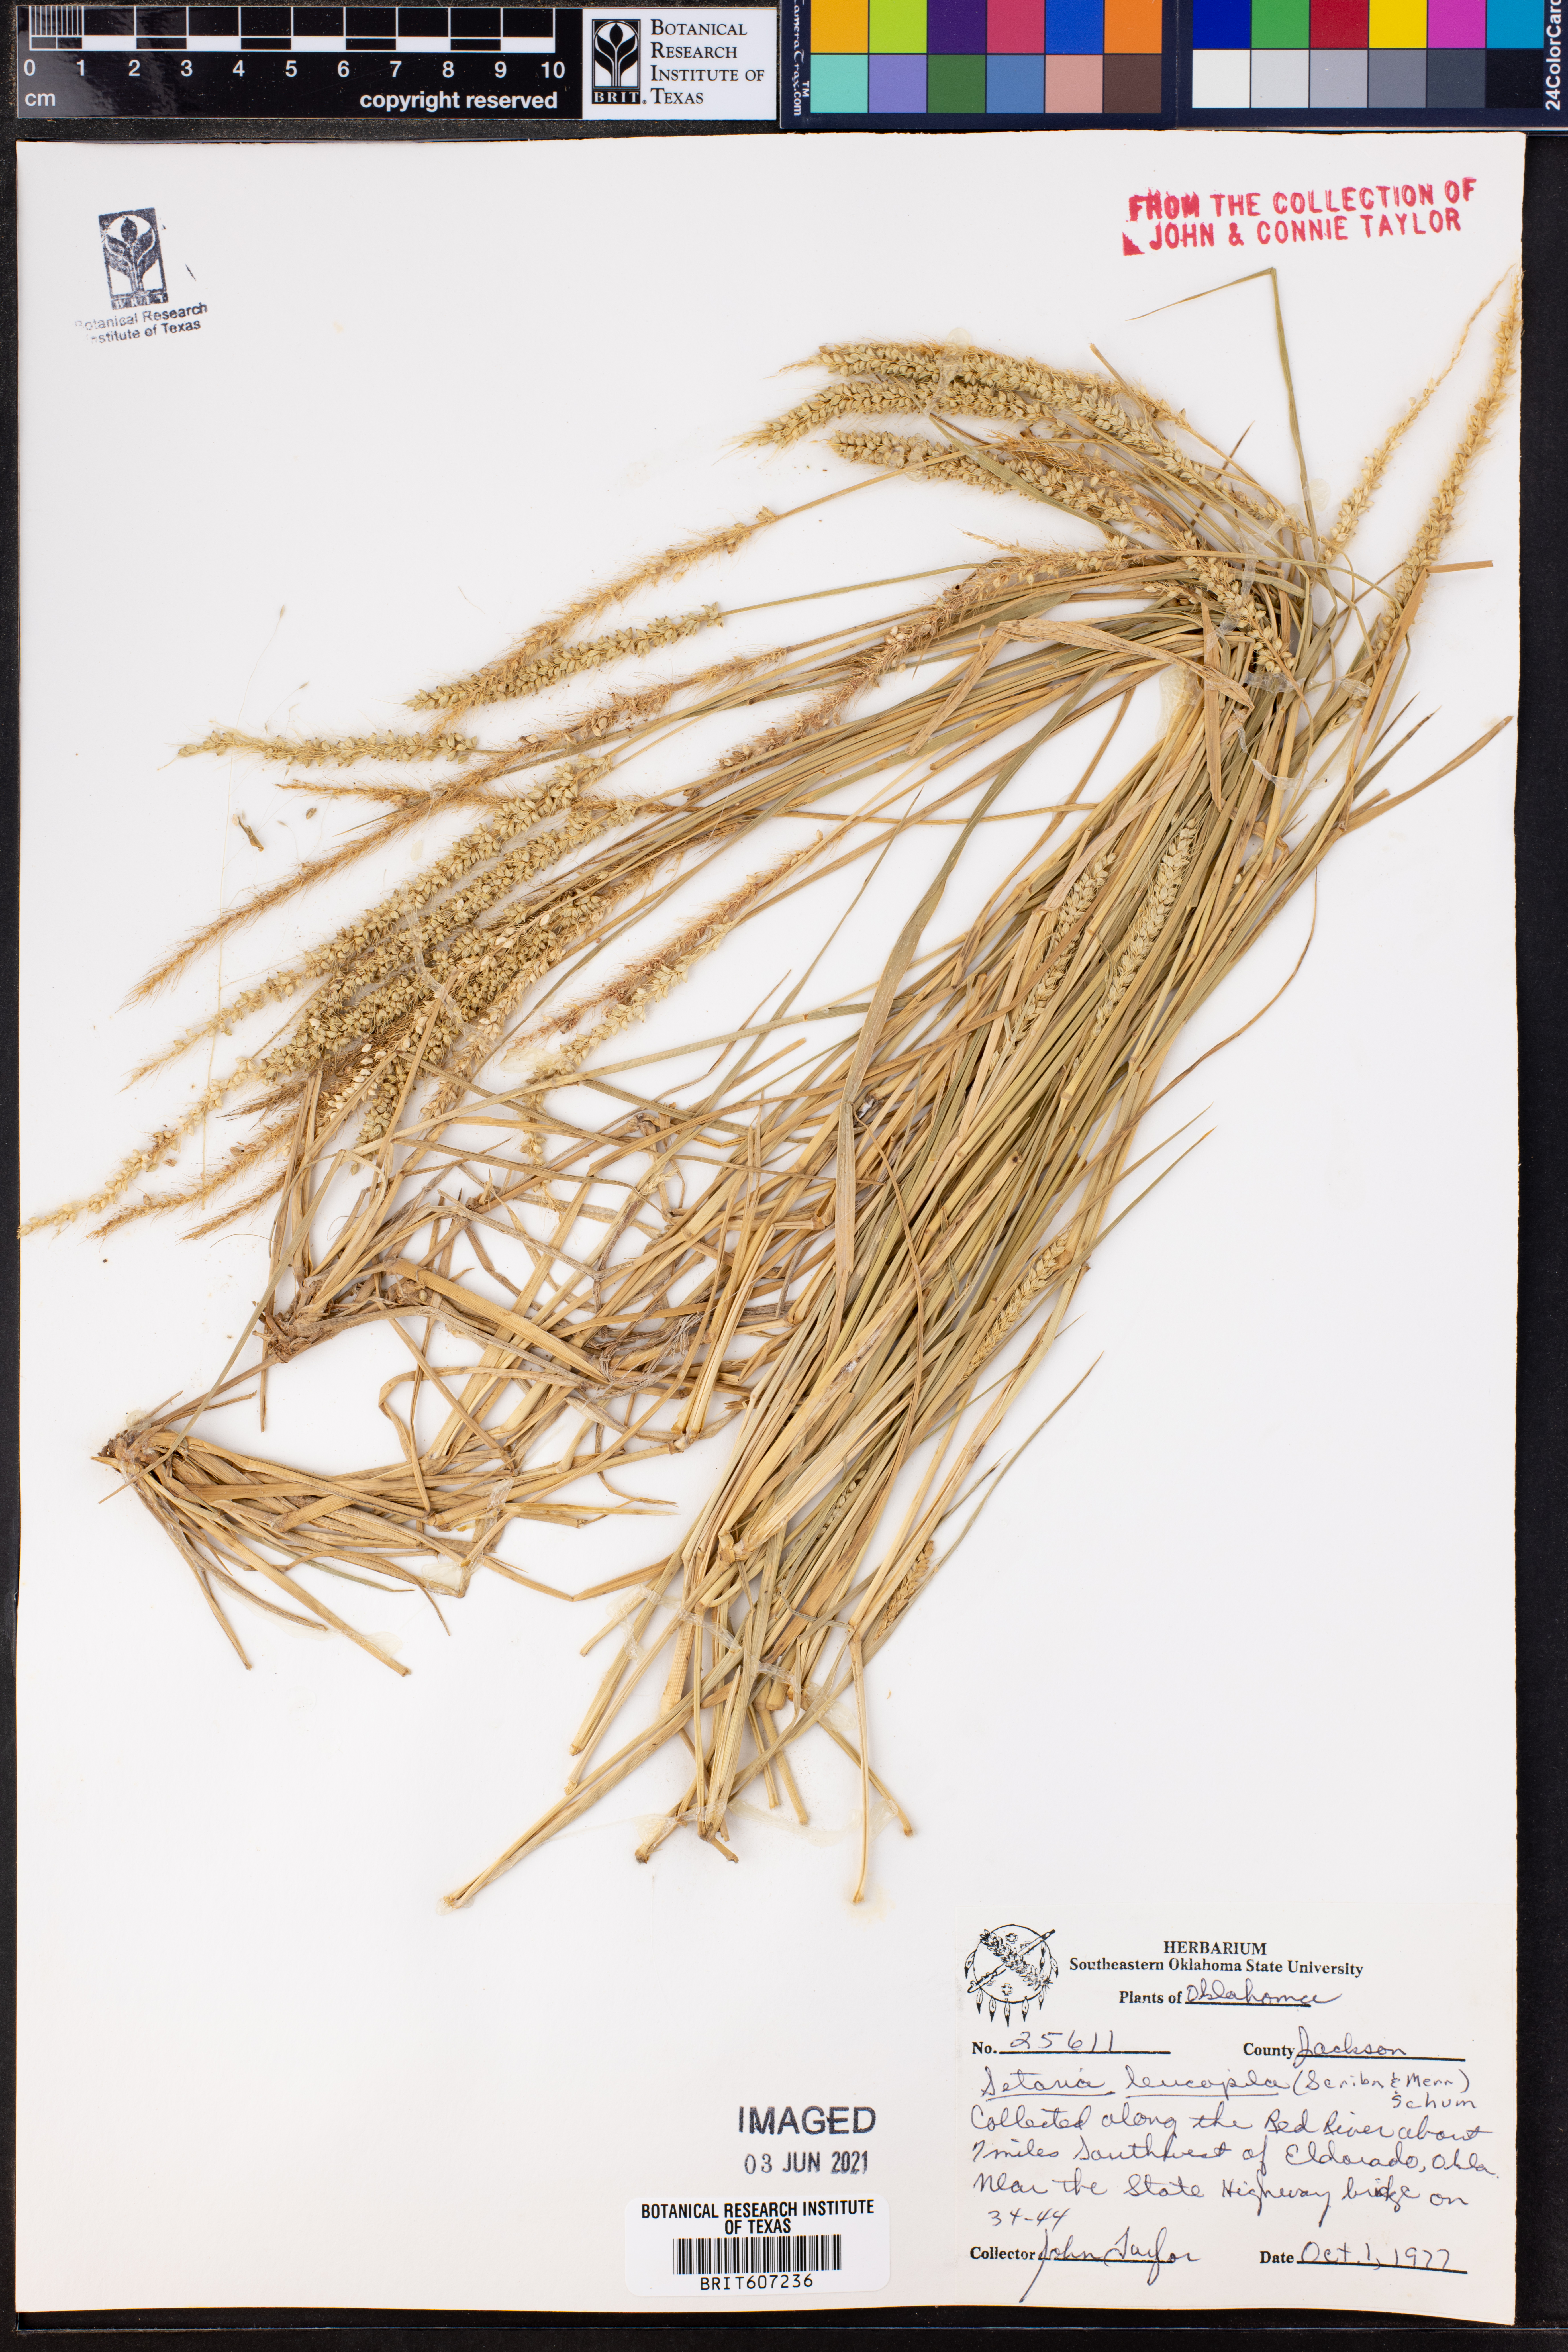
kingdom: Plantae
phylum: Tracheophyta
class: Liliopsida
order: Poales
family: Poaceae
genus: Setaria
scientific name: Setaria leucopila
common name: Plains bristle grass
